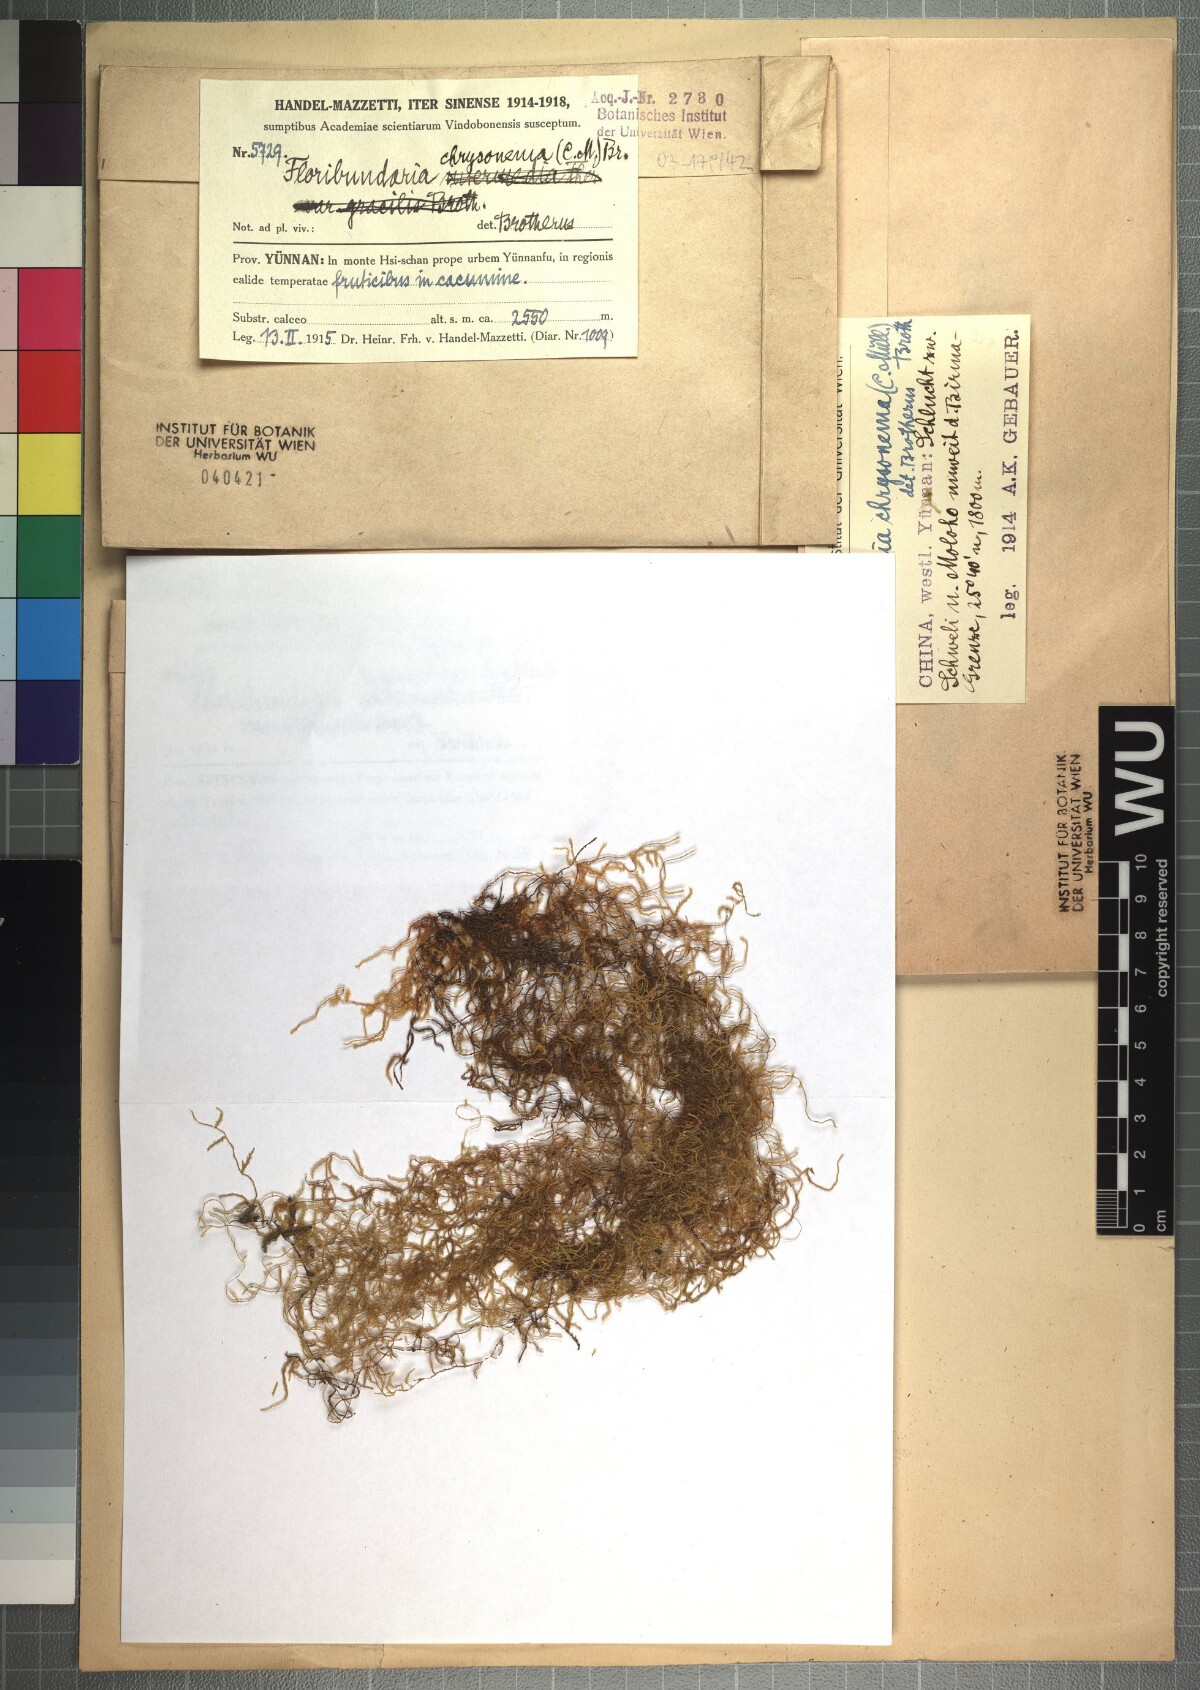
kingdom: Plantae
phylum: Bryophyta
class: Bryopsida
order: Hypnales
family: Meteoriaceae
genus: Barbella
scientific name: Barbella chrysonema
